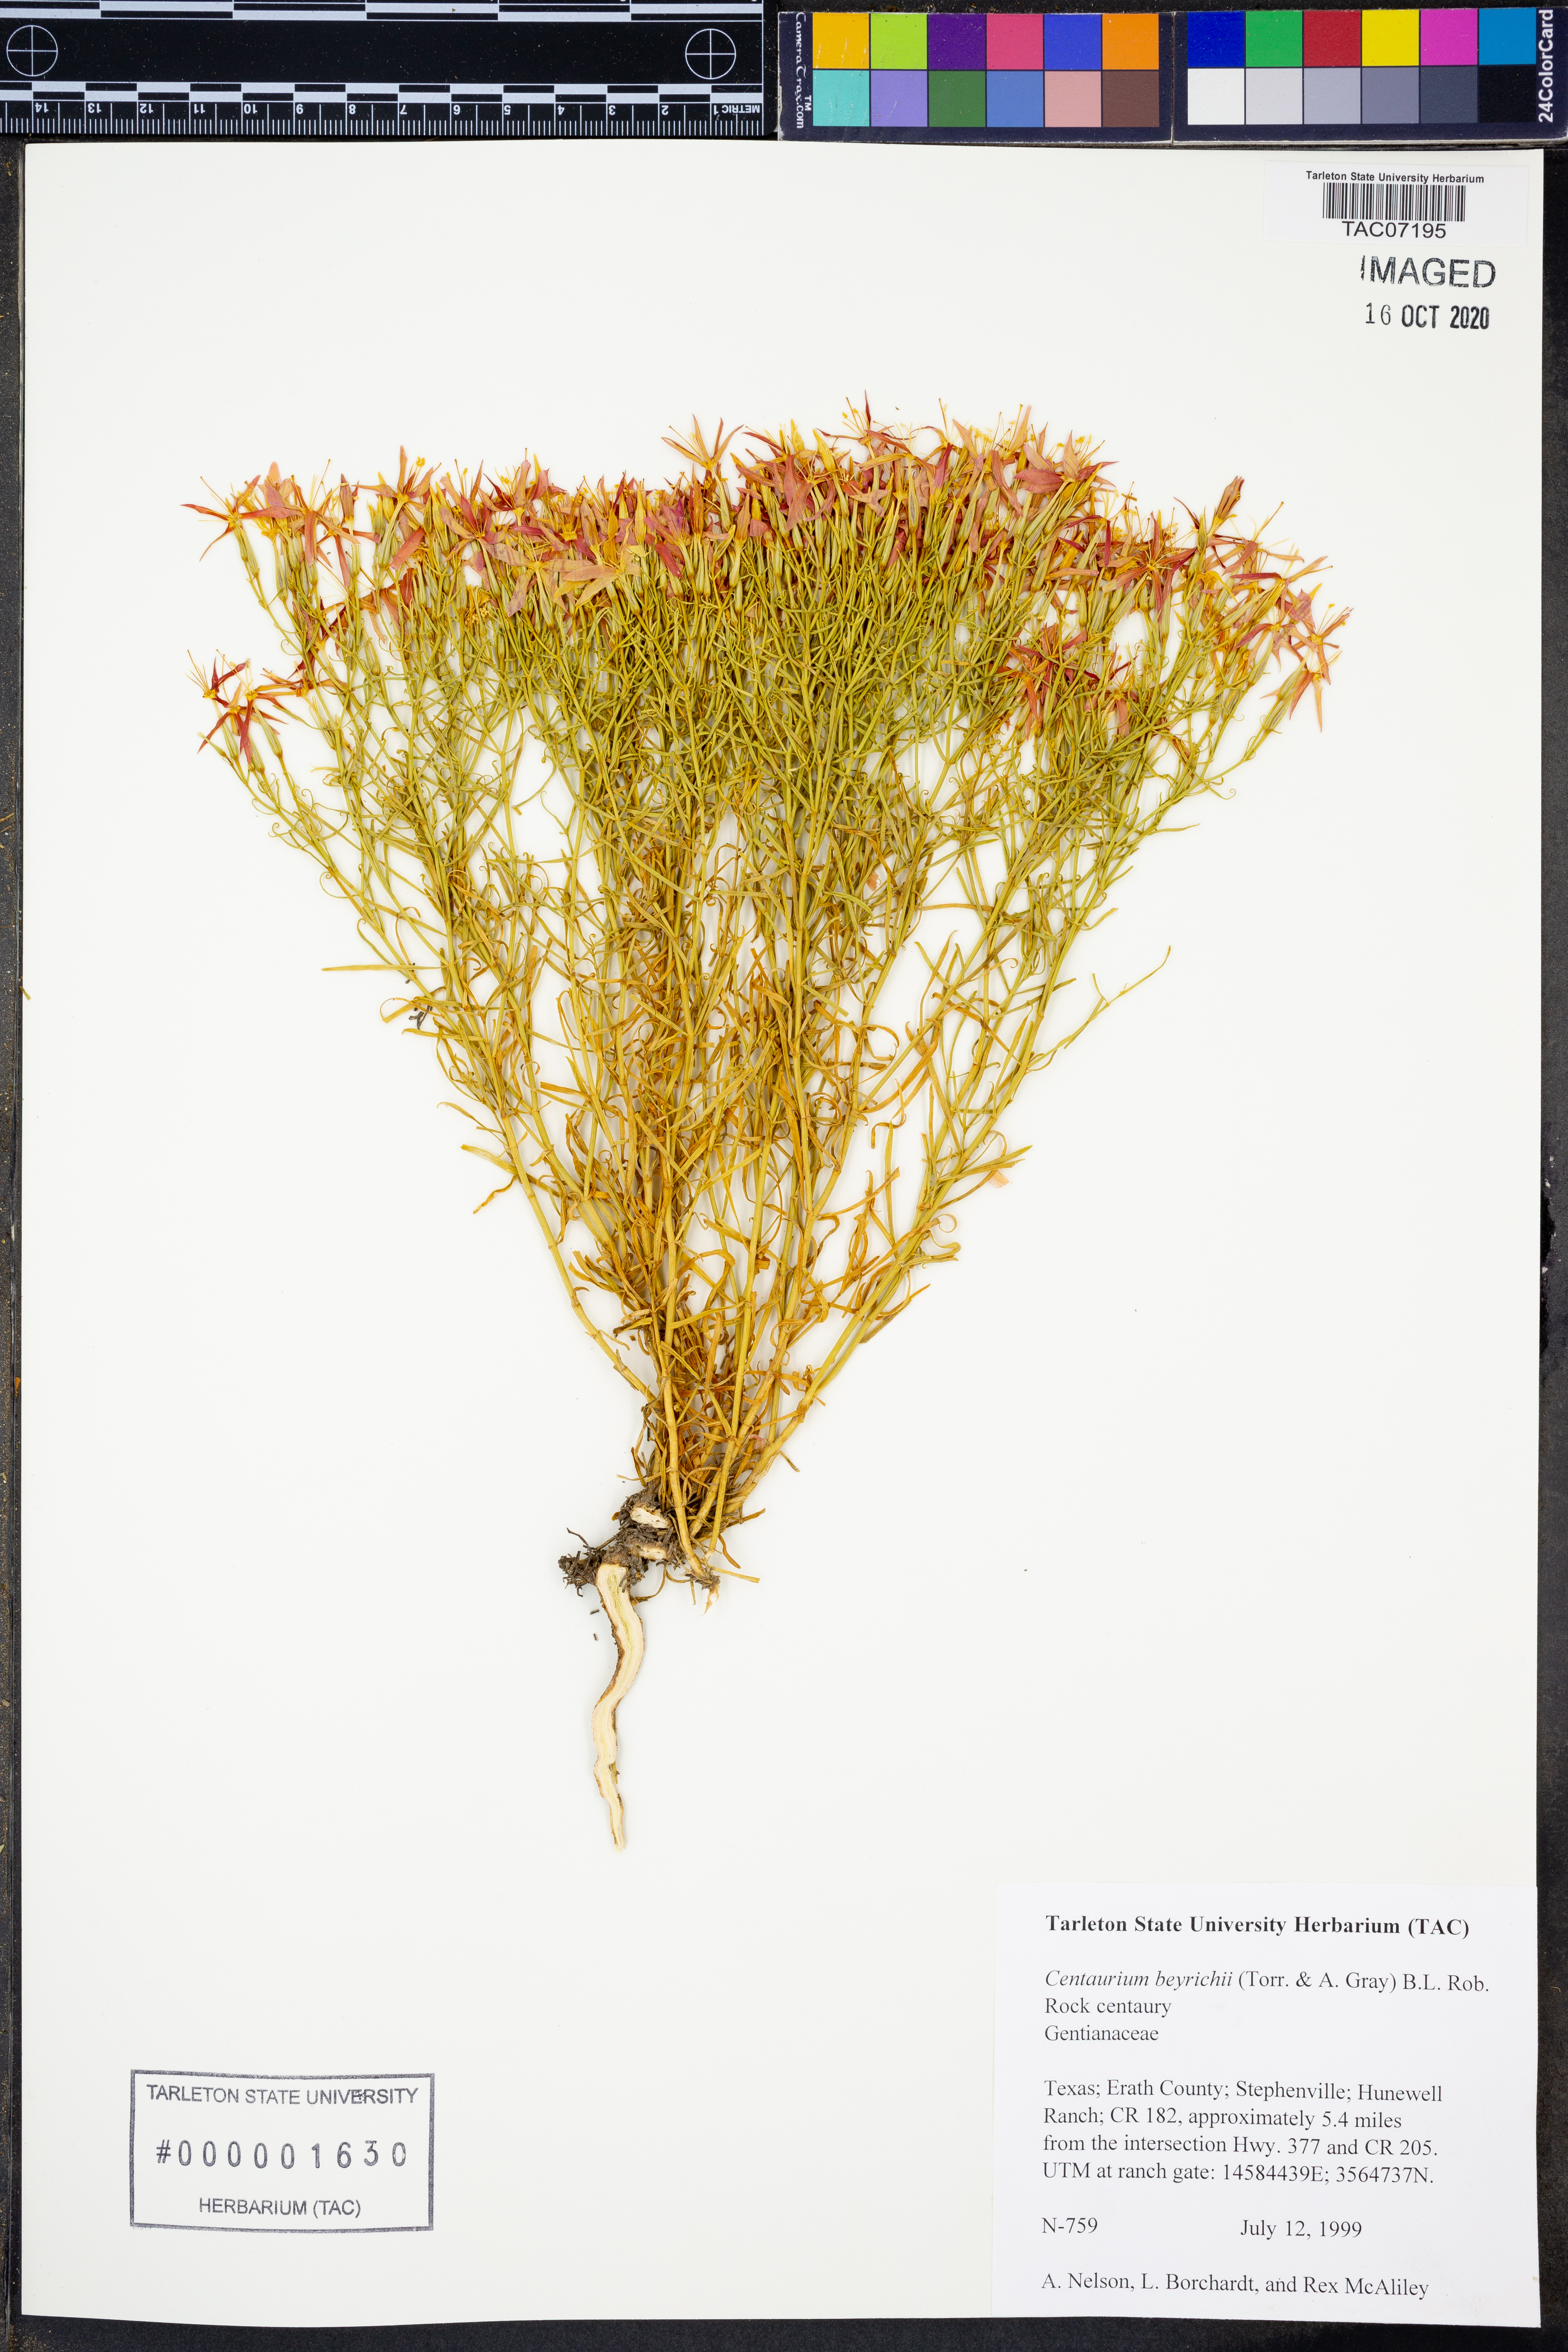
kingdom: Plantae
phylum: Tracheophyta
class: Magnoliopsida
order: Gentianales
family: Gentianaceae
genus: Zeltnera
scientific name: Zeltnera beyrichii
